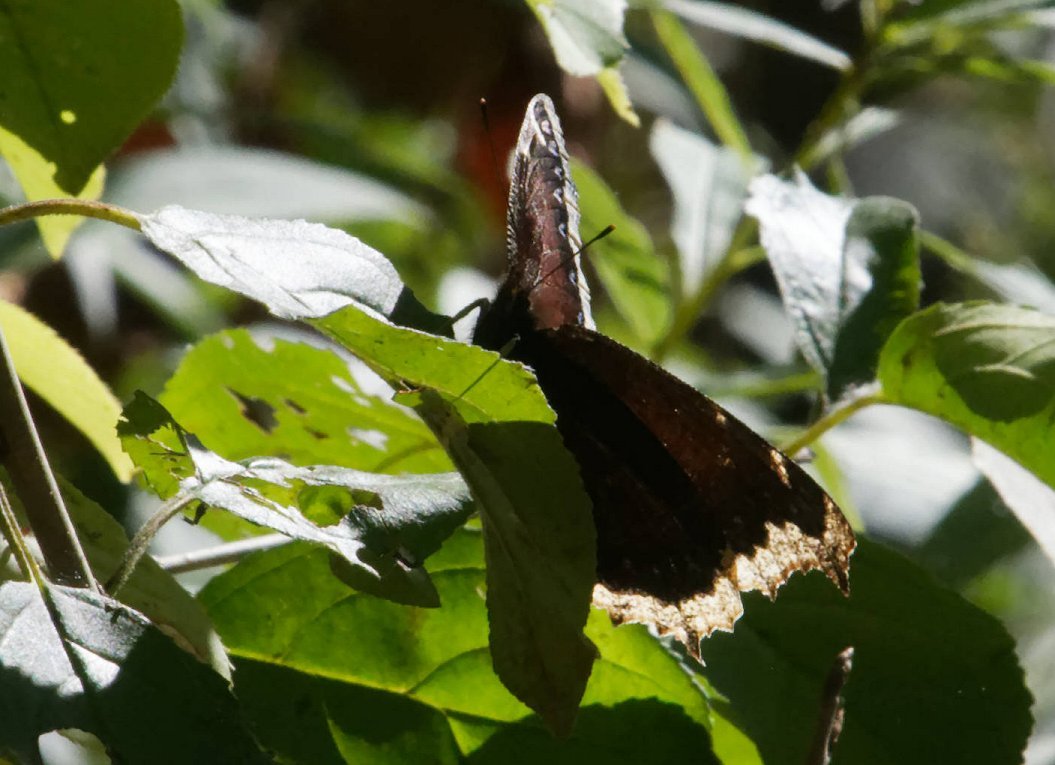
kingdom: Animalia
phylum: Arthropoda
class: Insecta
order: Lepidoptera
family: Nymphalidae
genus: Nymphalis
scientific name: Nymphalis antiopa
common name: Mourning Cloak
